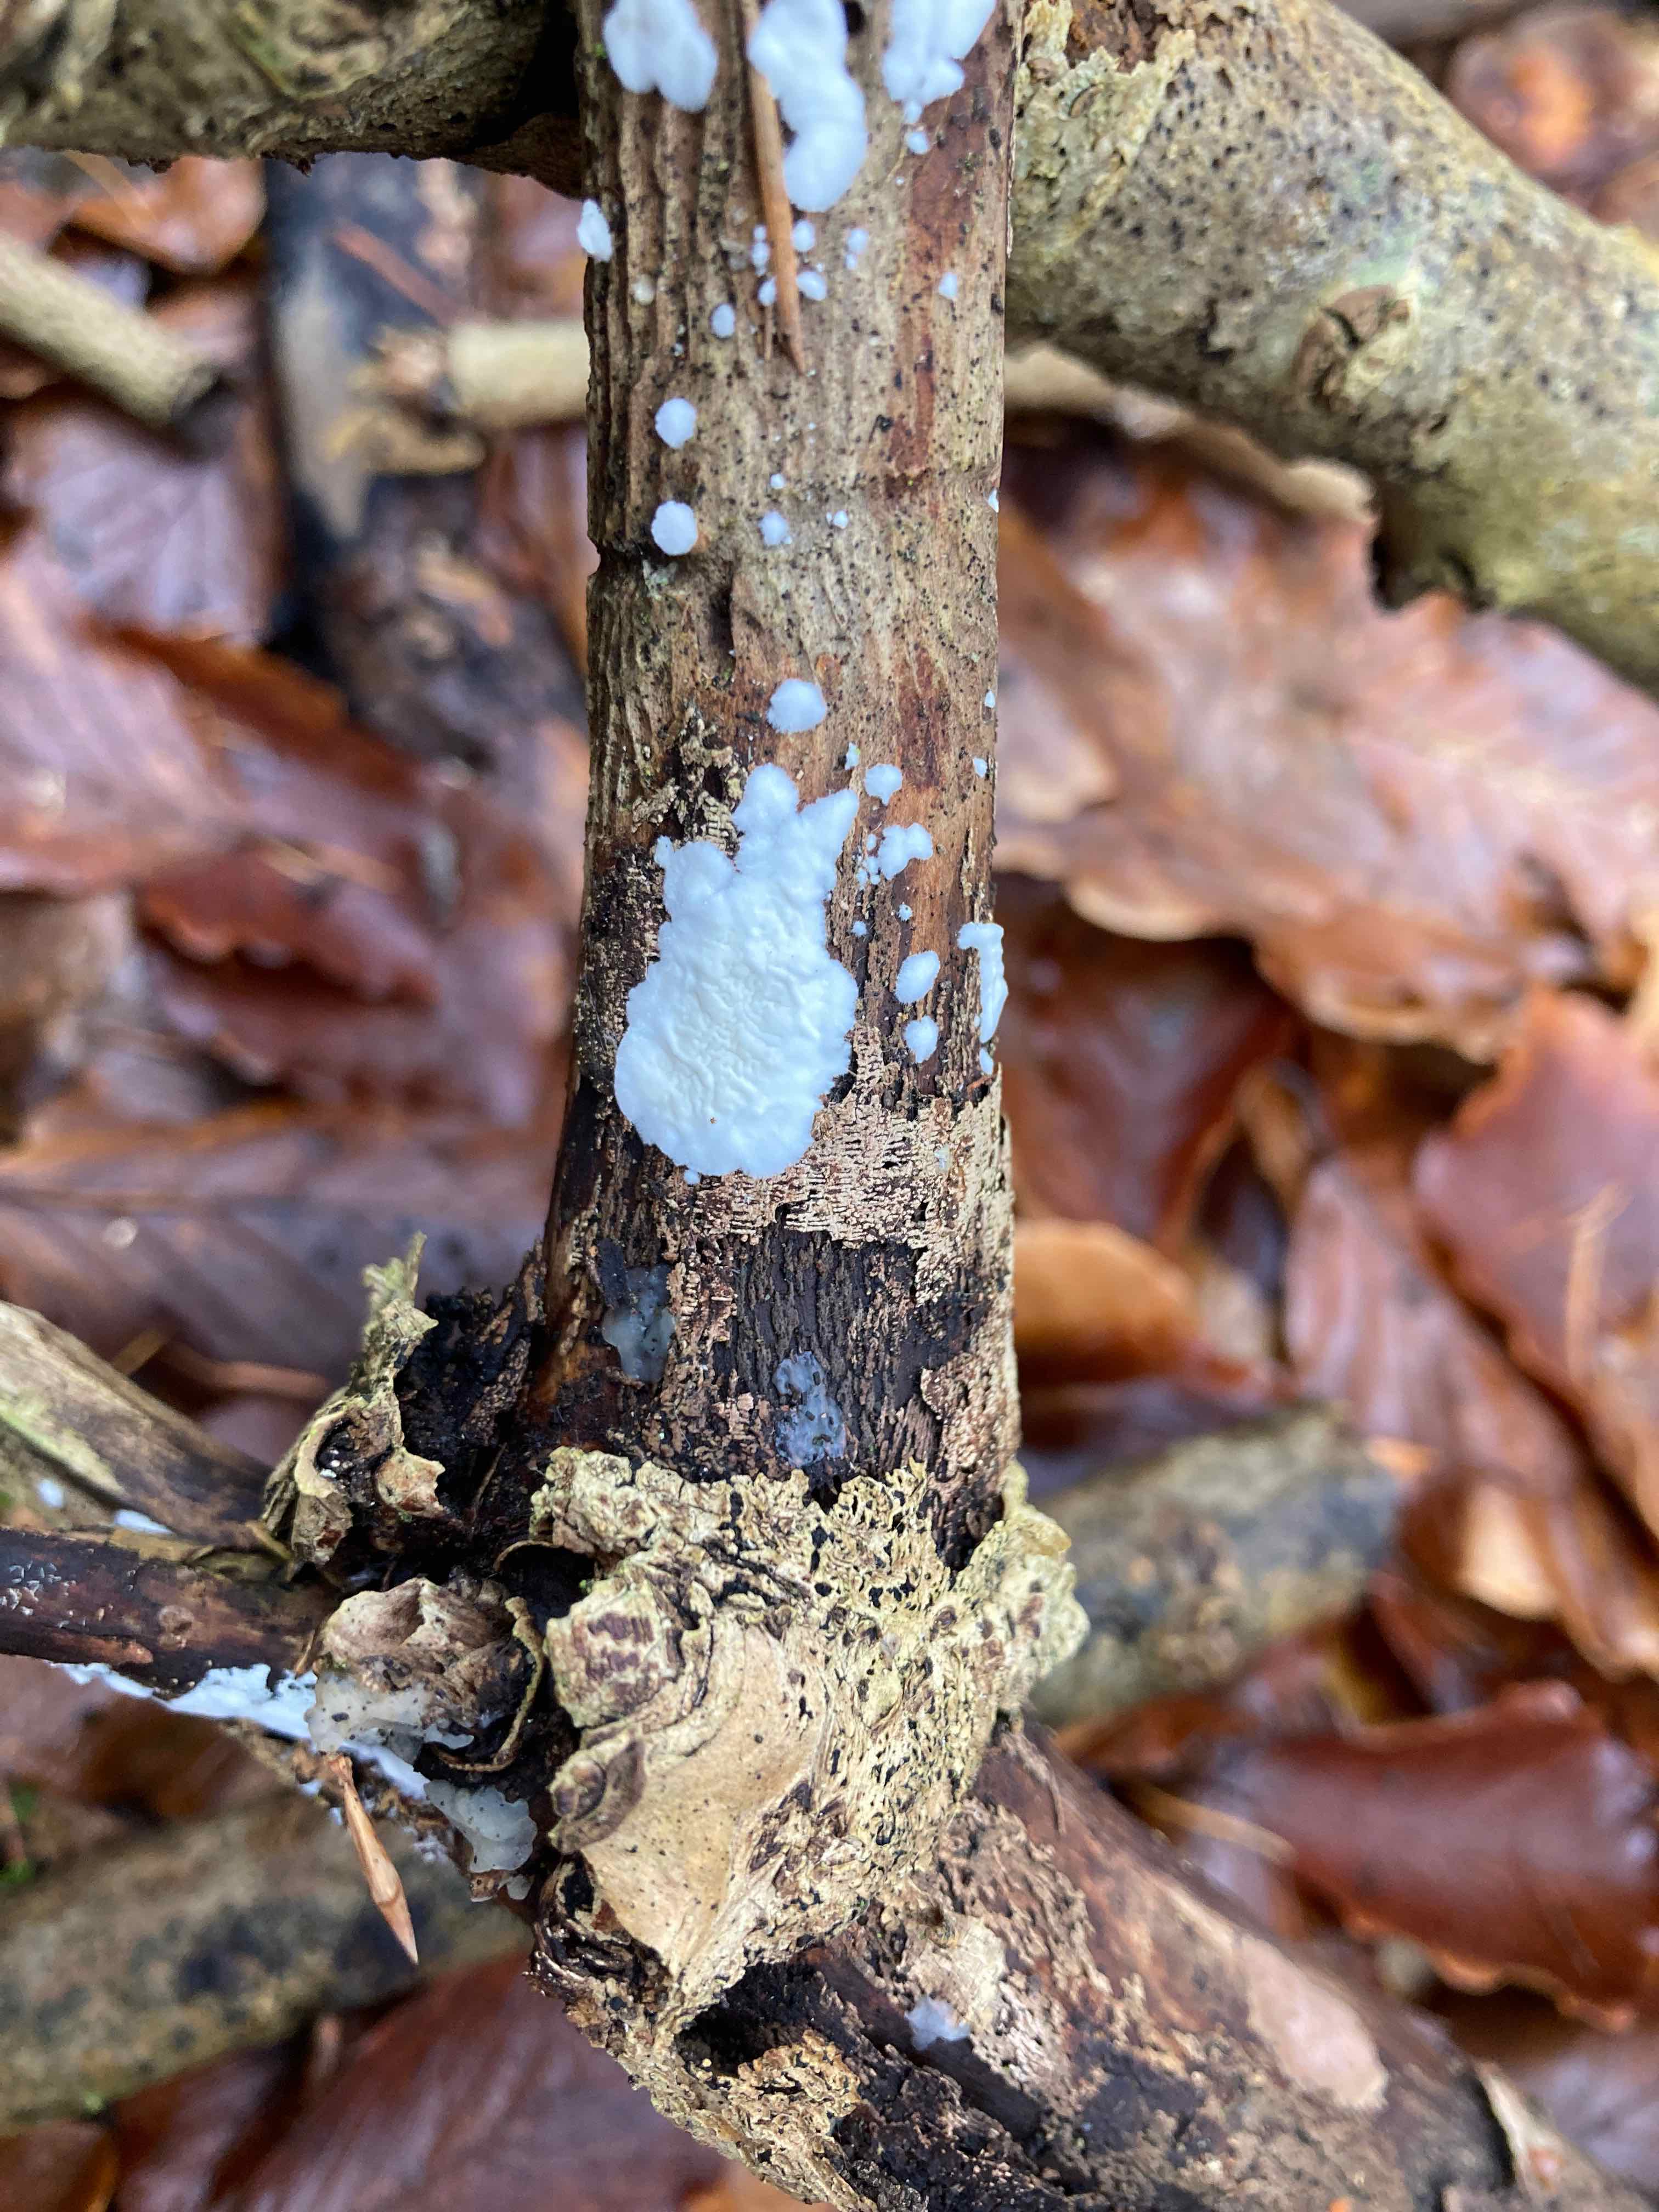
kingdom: Fungi
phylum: Basidiomycota
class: Agaricomycetes
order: Polyporales
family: Irpicaceae
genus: Byssomerulius
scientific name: Byssomerulius corium
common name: læder-åresvamp
